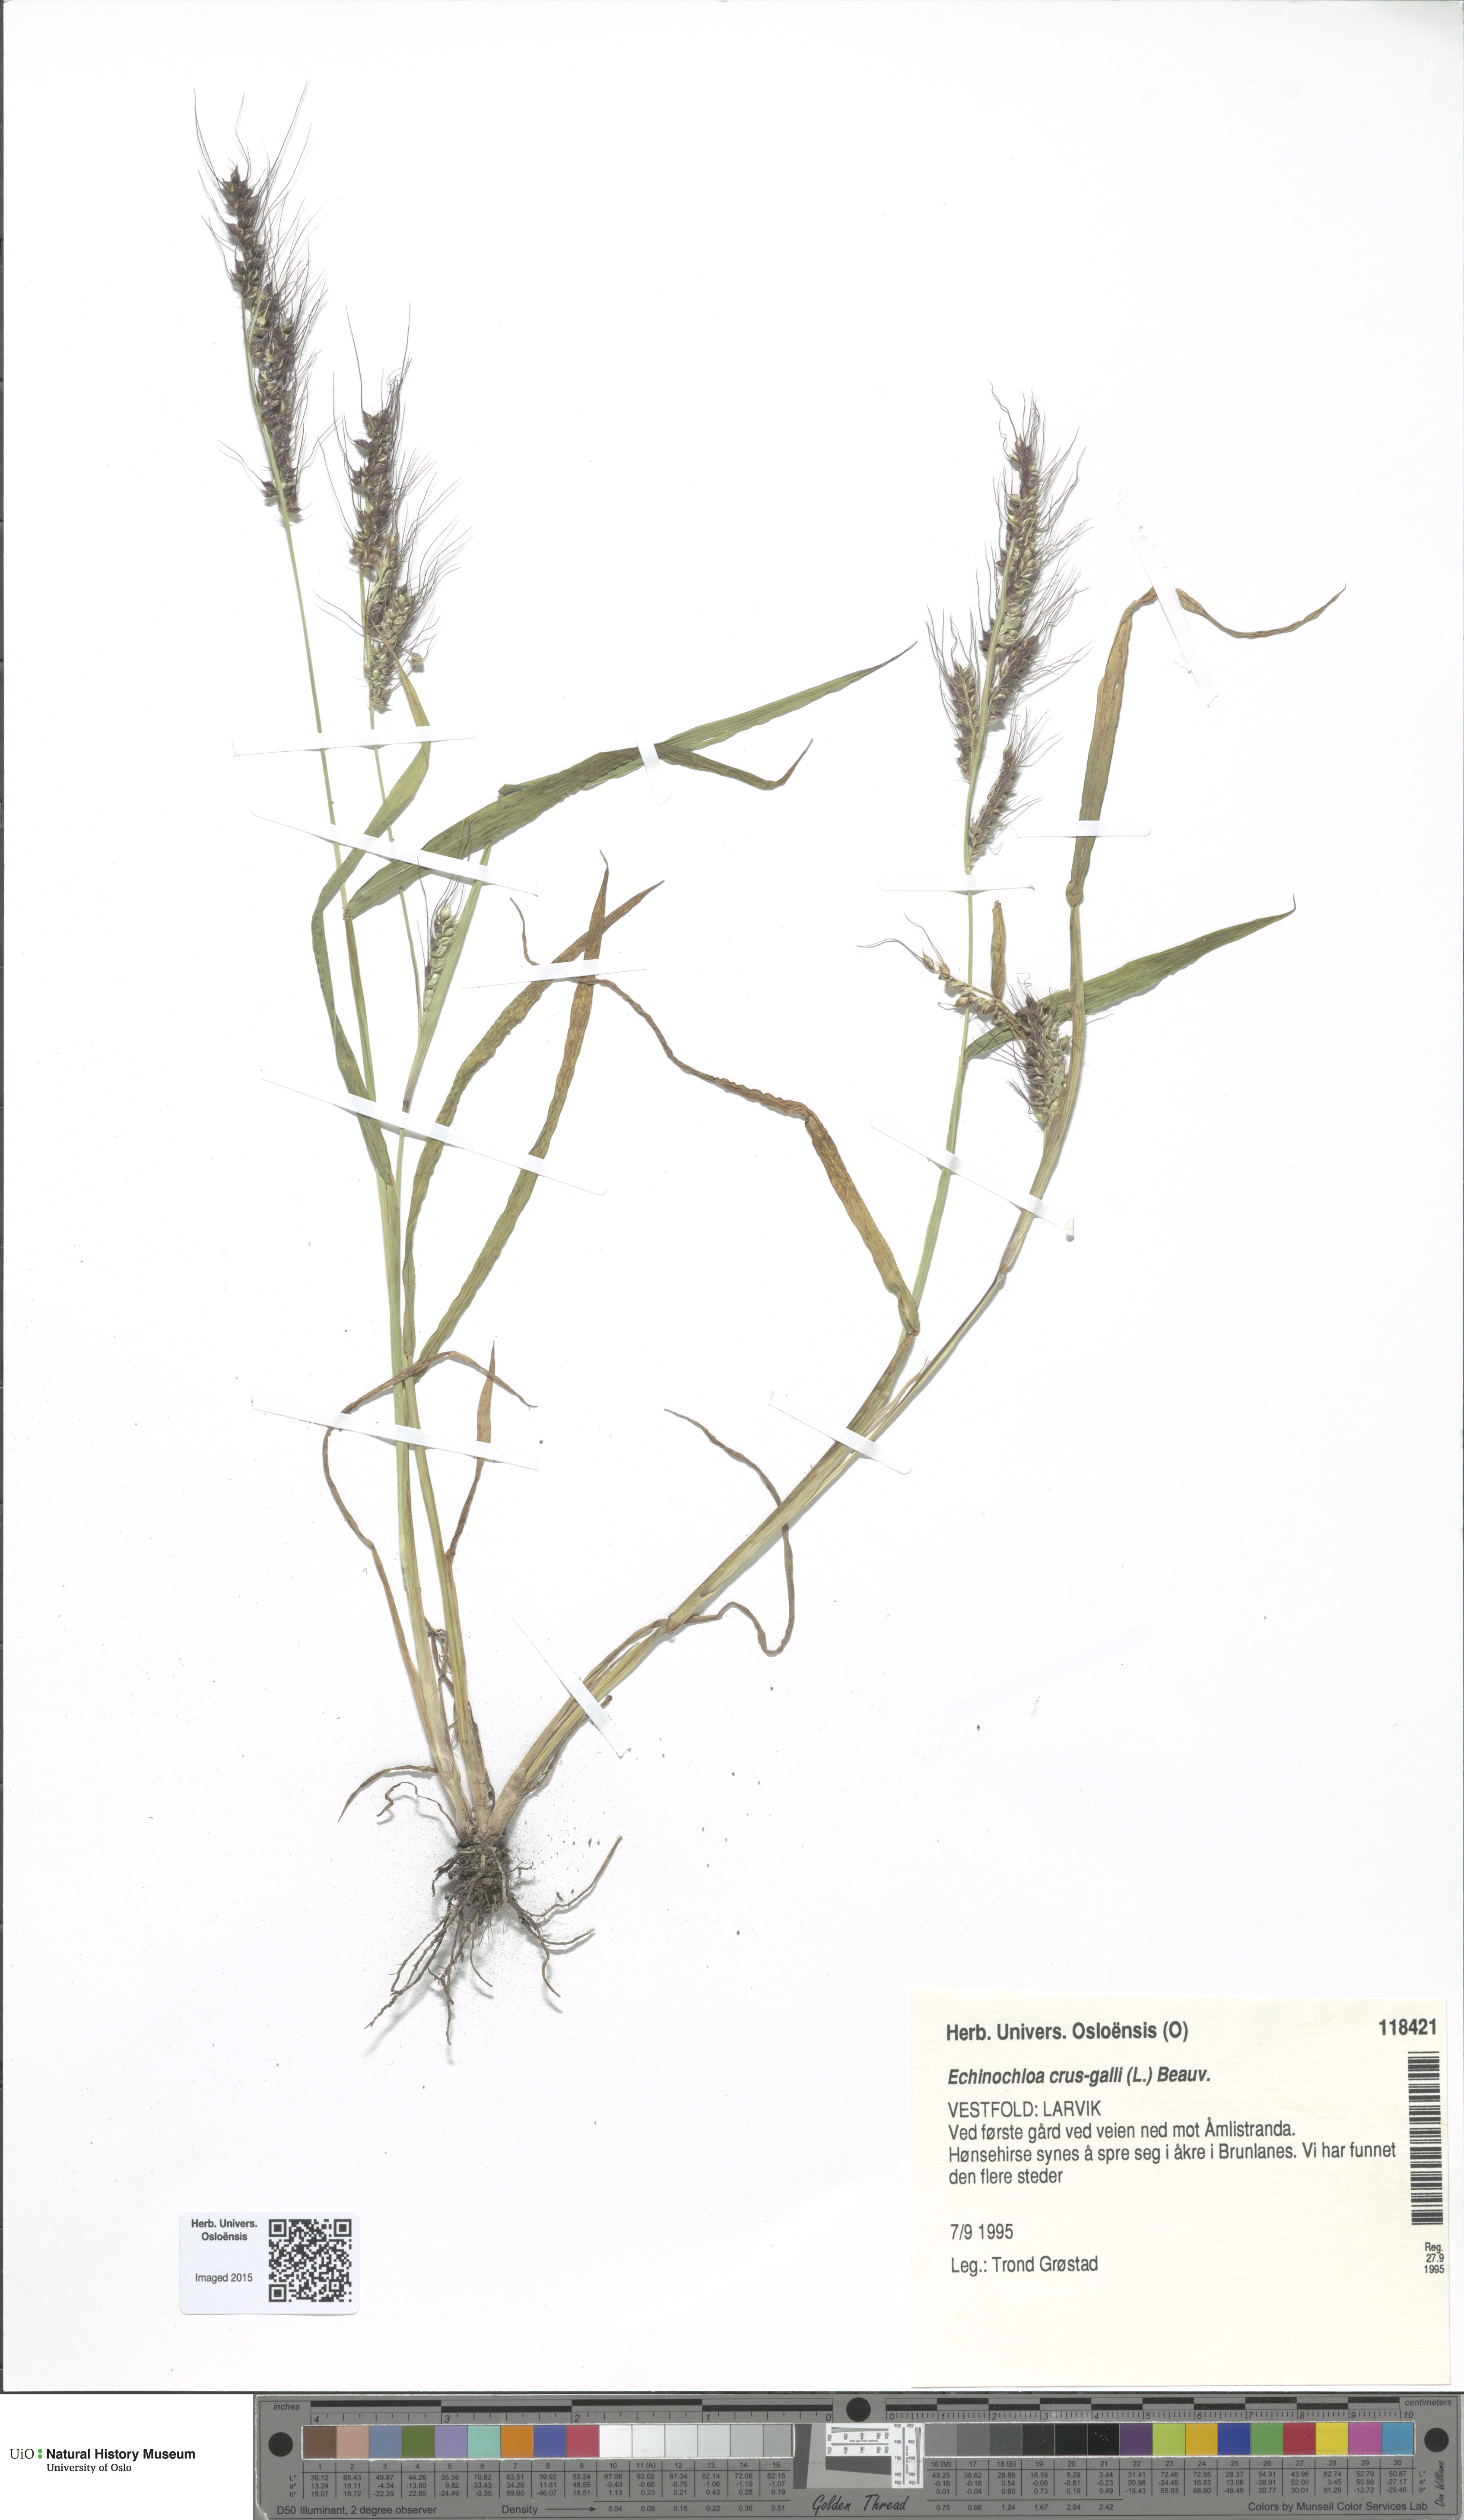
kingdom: Plantae
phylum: Tracheophyta
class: Liliopsida
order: Poales
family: Poaceae
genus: Echinochloa
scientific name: Echinochloa crus-galli
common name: Cockspur
